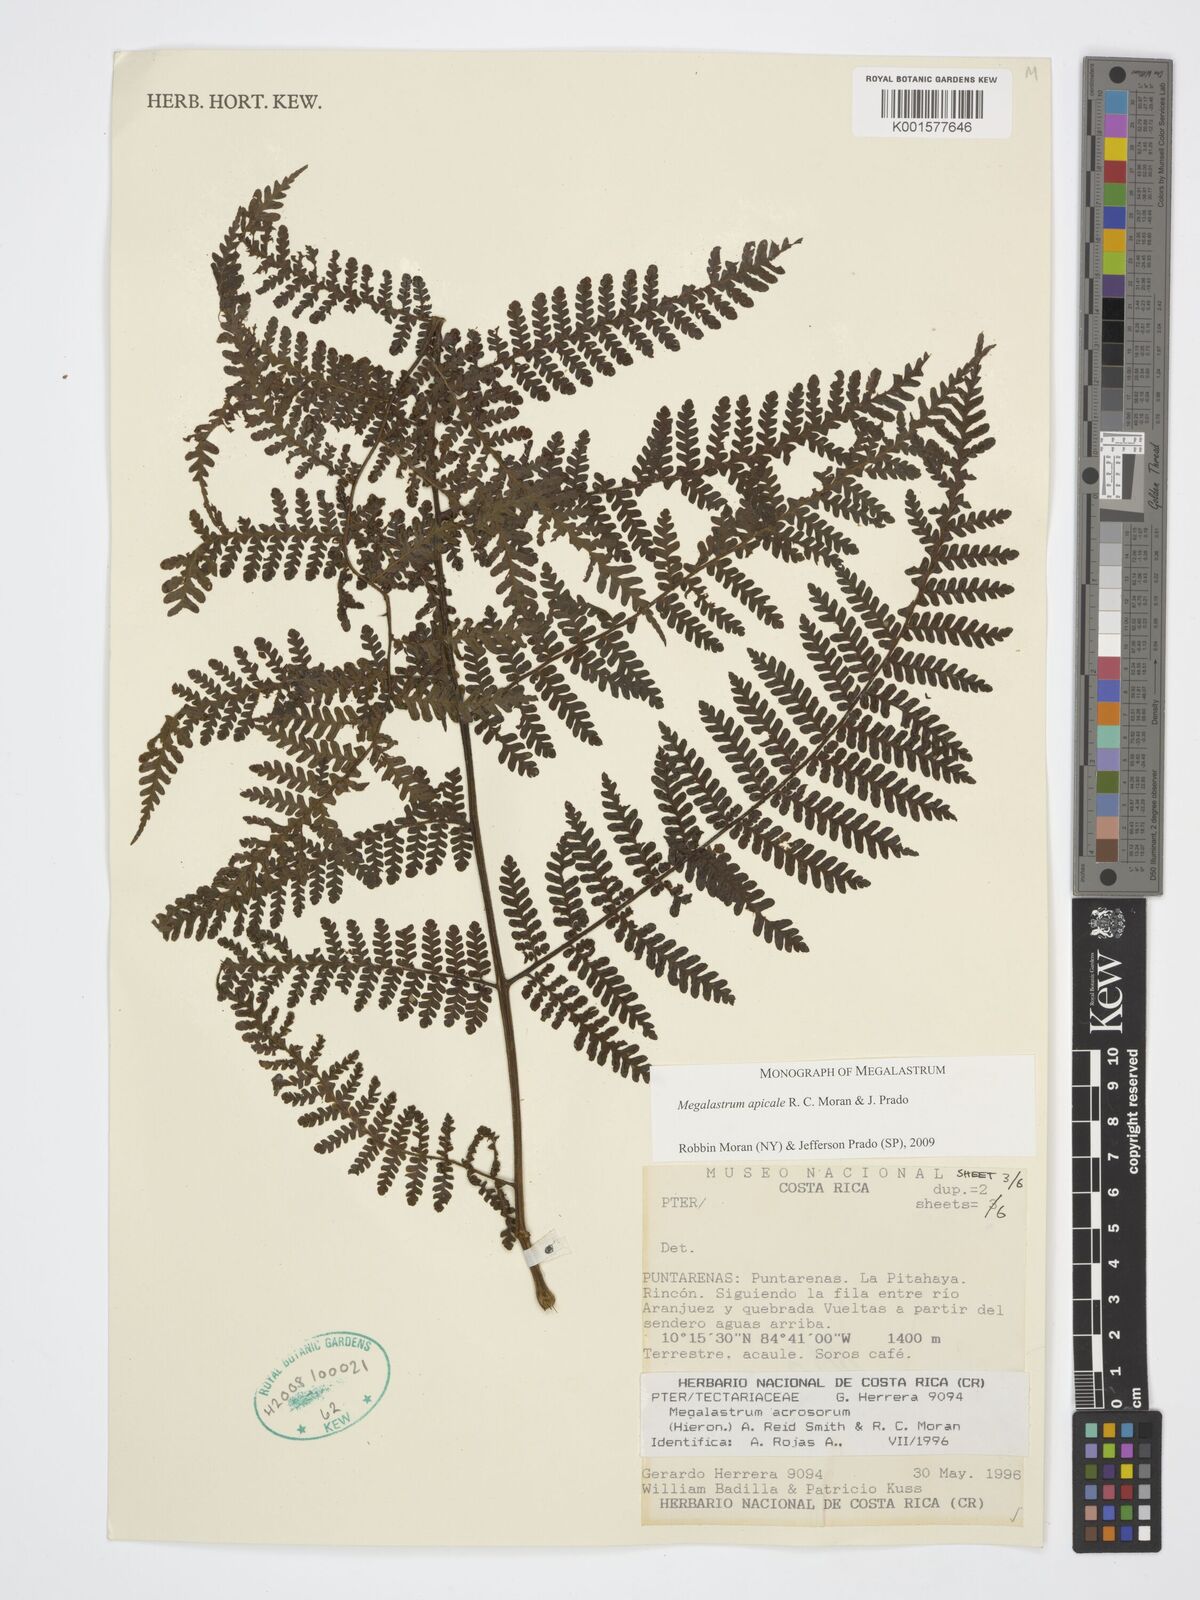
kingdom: Plantae
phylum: Tracheophyta
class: Polypodiopsida
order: Polypodiales
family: Dryopteridaceae
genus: Megalastrum
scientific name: Megalastrum apicale
